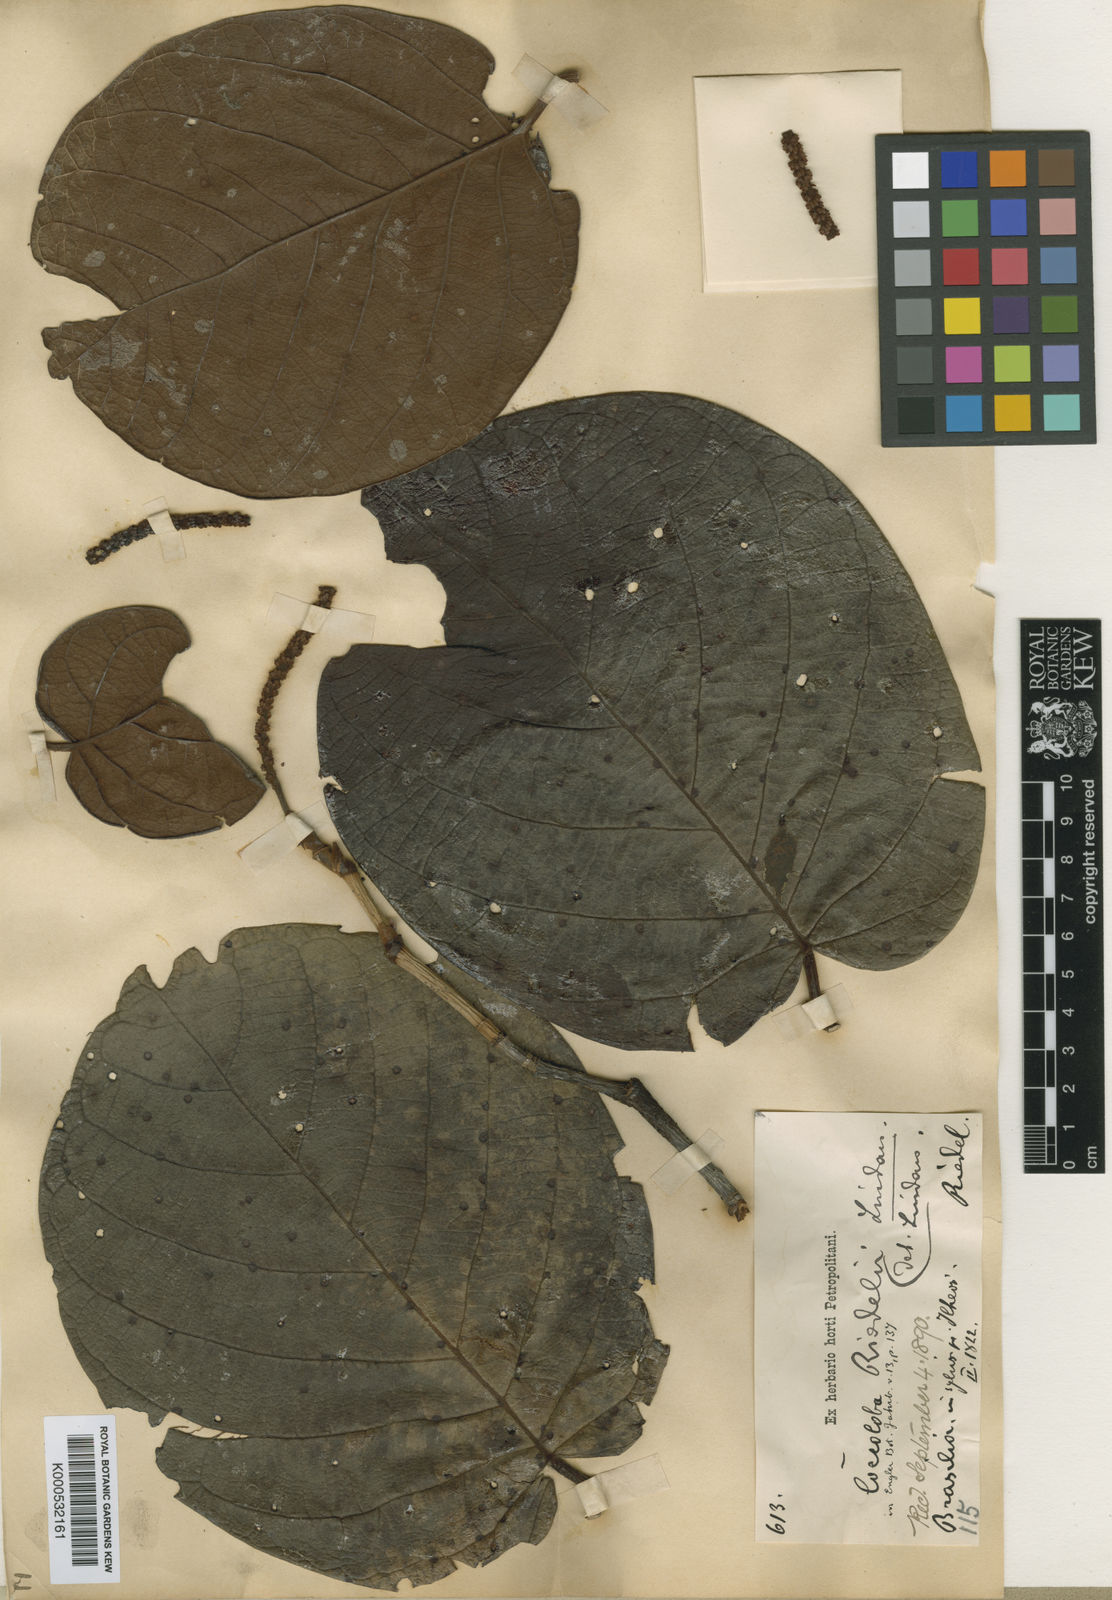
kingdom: Plantae
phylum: Tracheophyta
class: Magnoliopsida
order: Caryophyllales
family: Polygonaceae
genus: Coccoloba
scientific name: Coccoloba rosea
